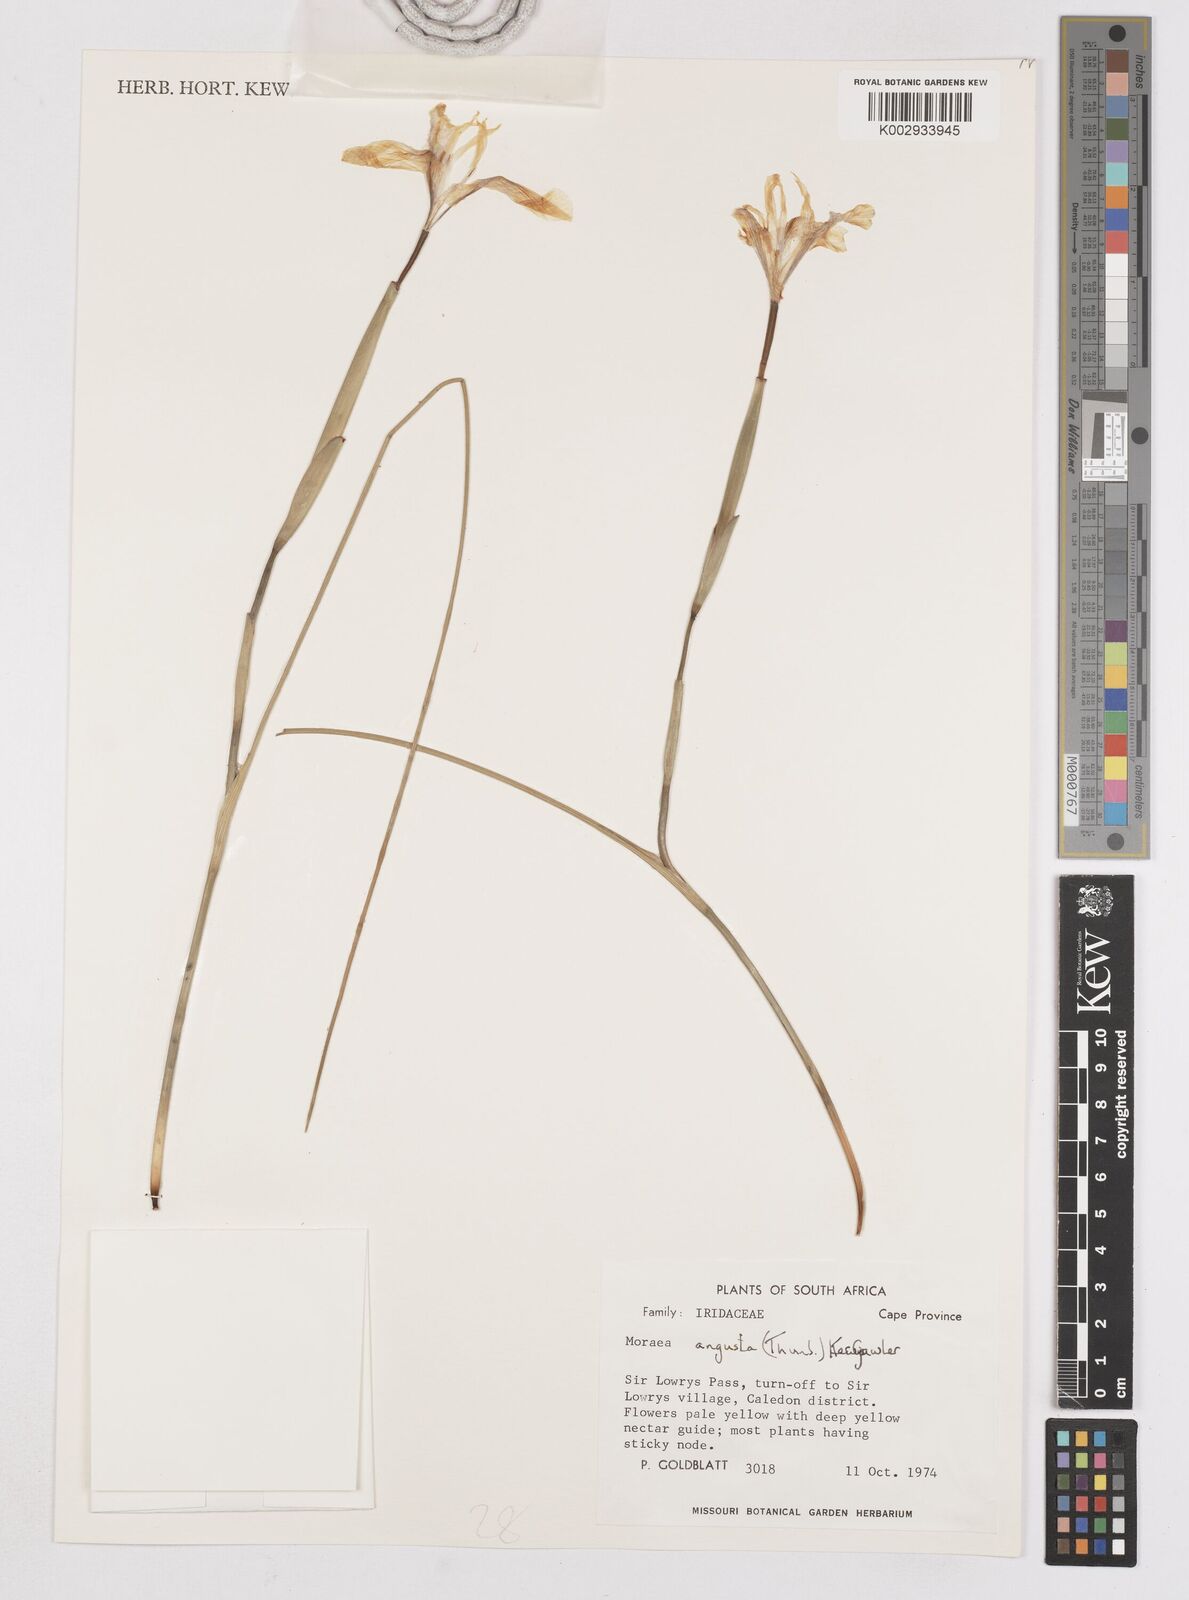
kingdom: Plantae
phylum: Tracheophyta
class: Liliopsida
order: Asparagales
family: Iridaceae
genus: Moraea
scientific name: Moraea angusta
